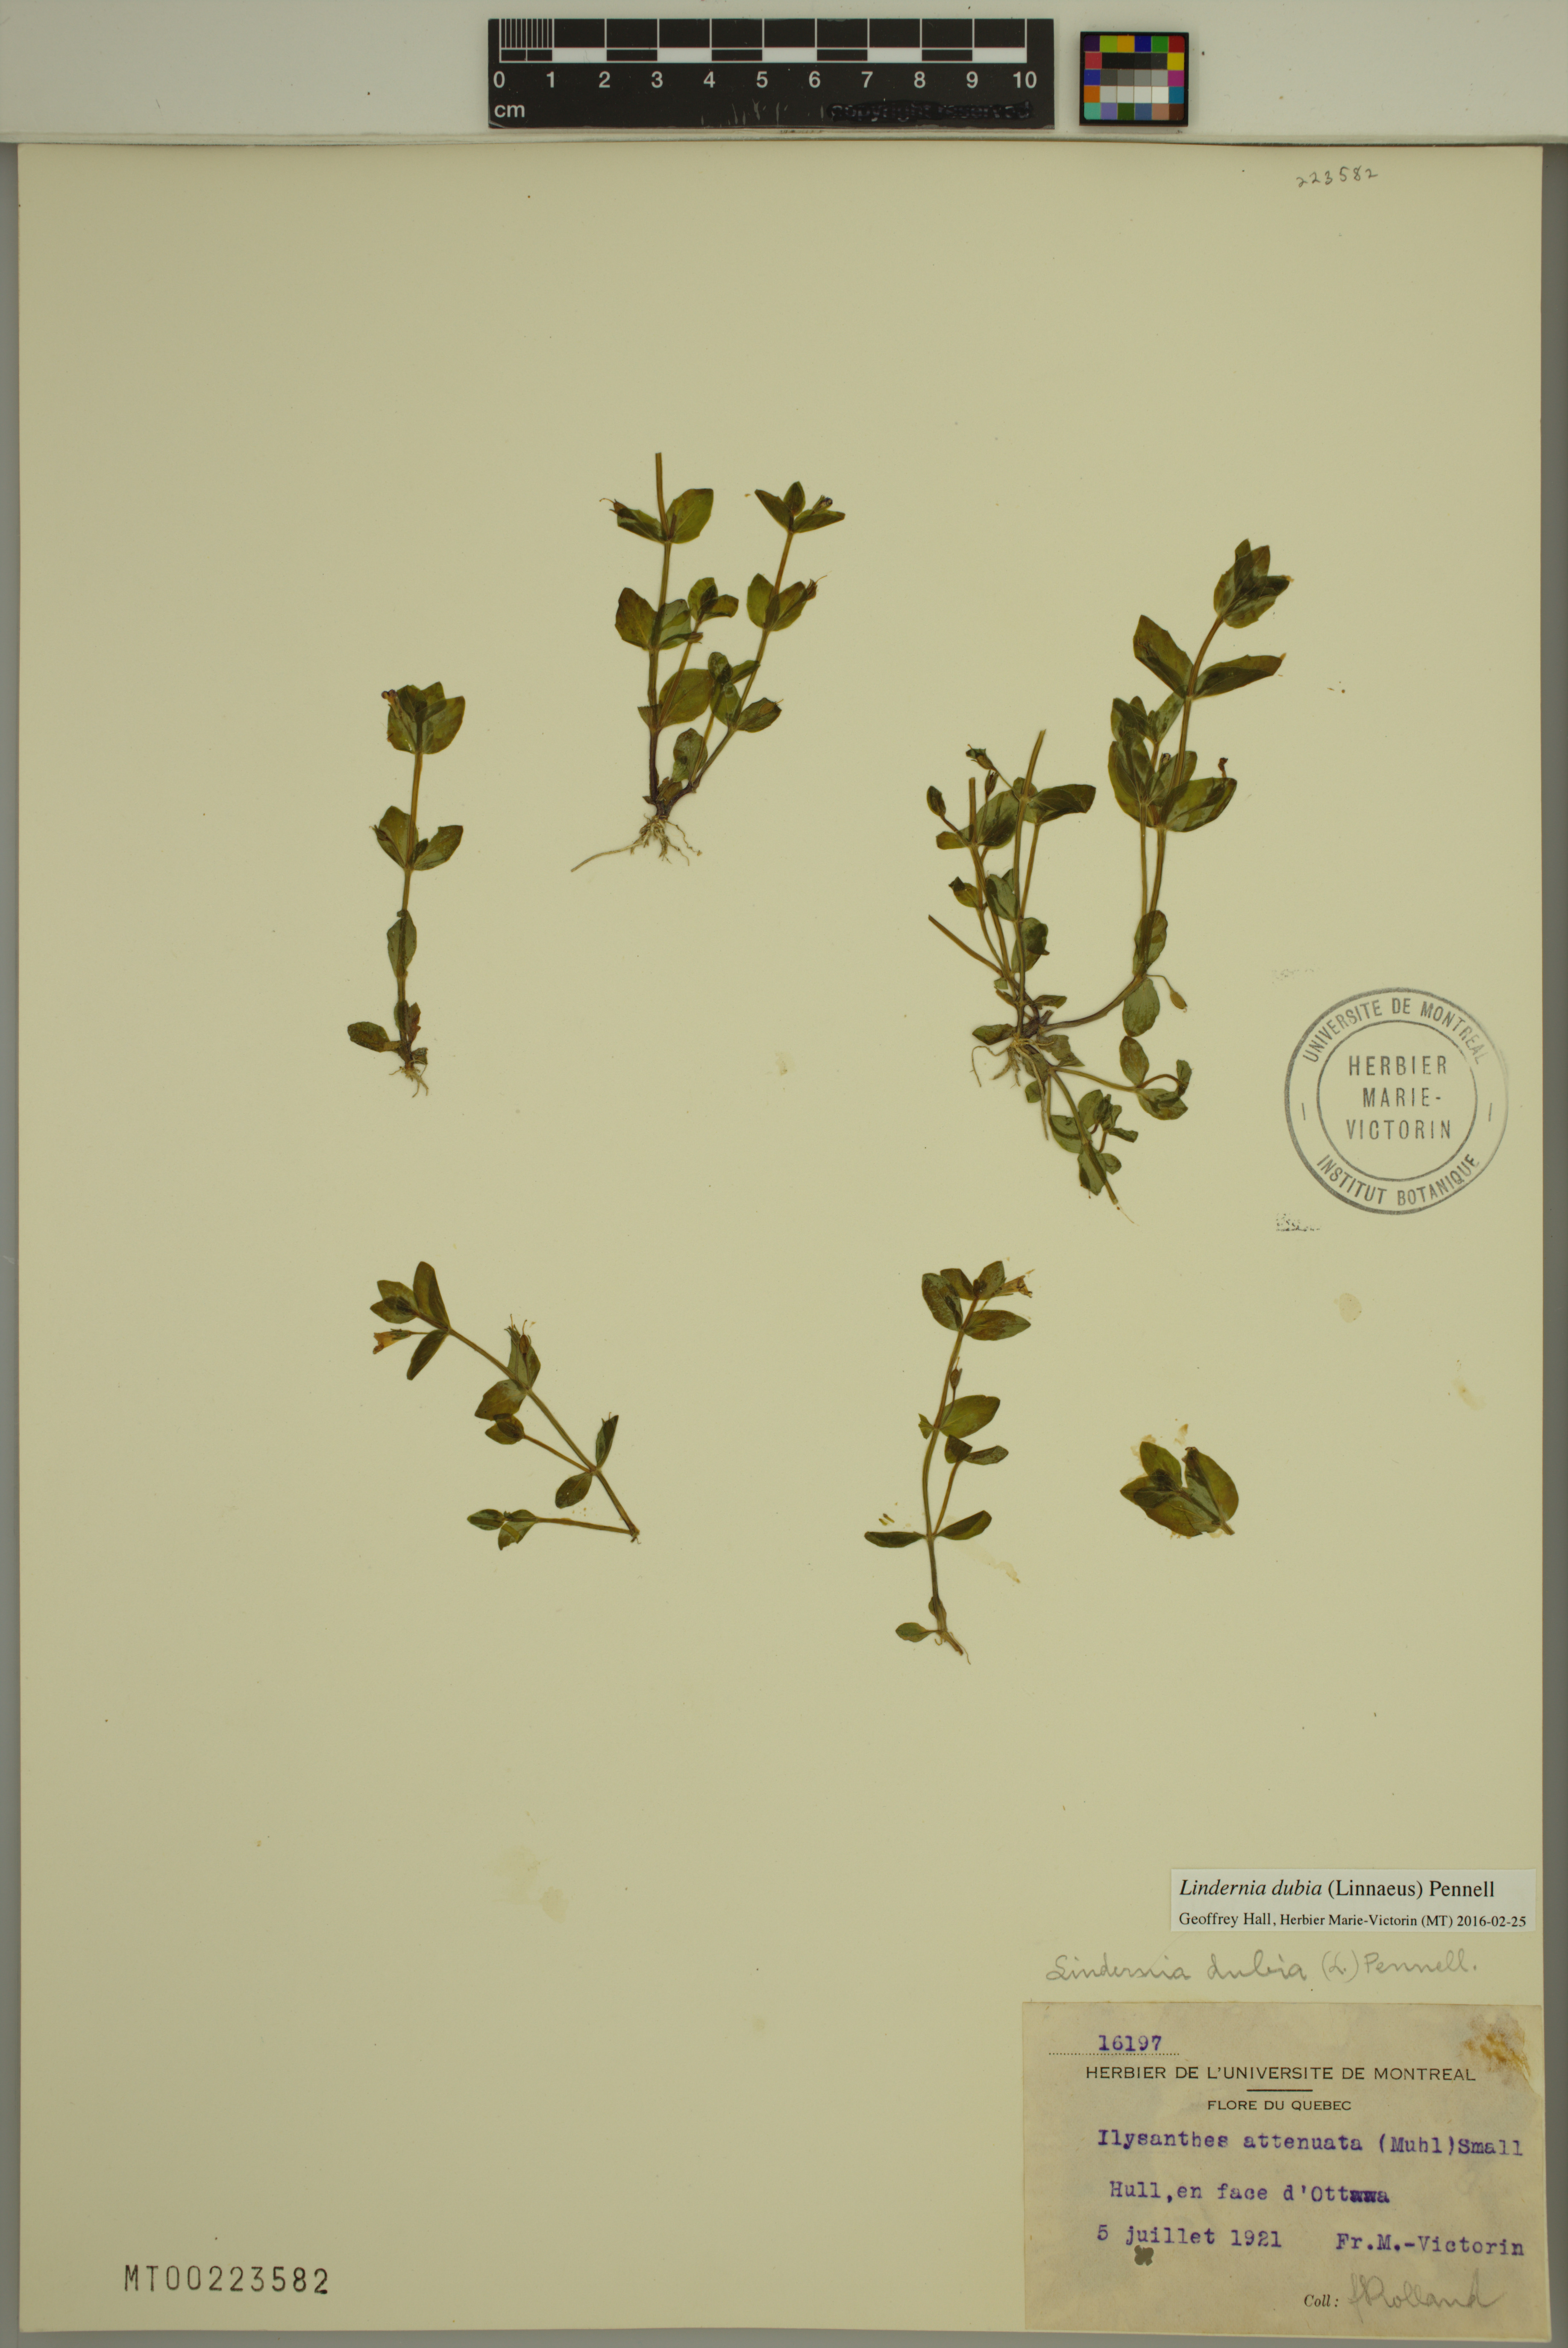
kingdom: Plantae
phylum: Tracheophyta
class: Magnoliopsida
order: Lamiales
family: Linderniaceae
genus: Lindernia
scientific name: Lindernia dubia
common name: Annual false pimpernel
